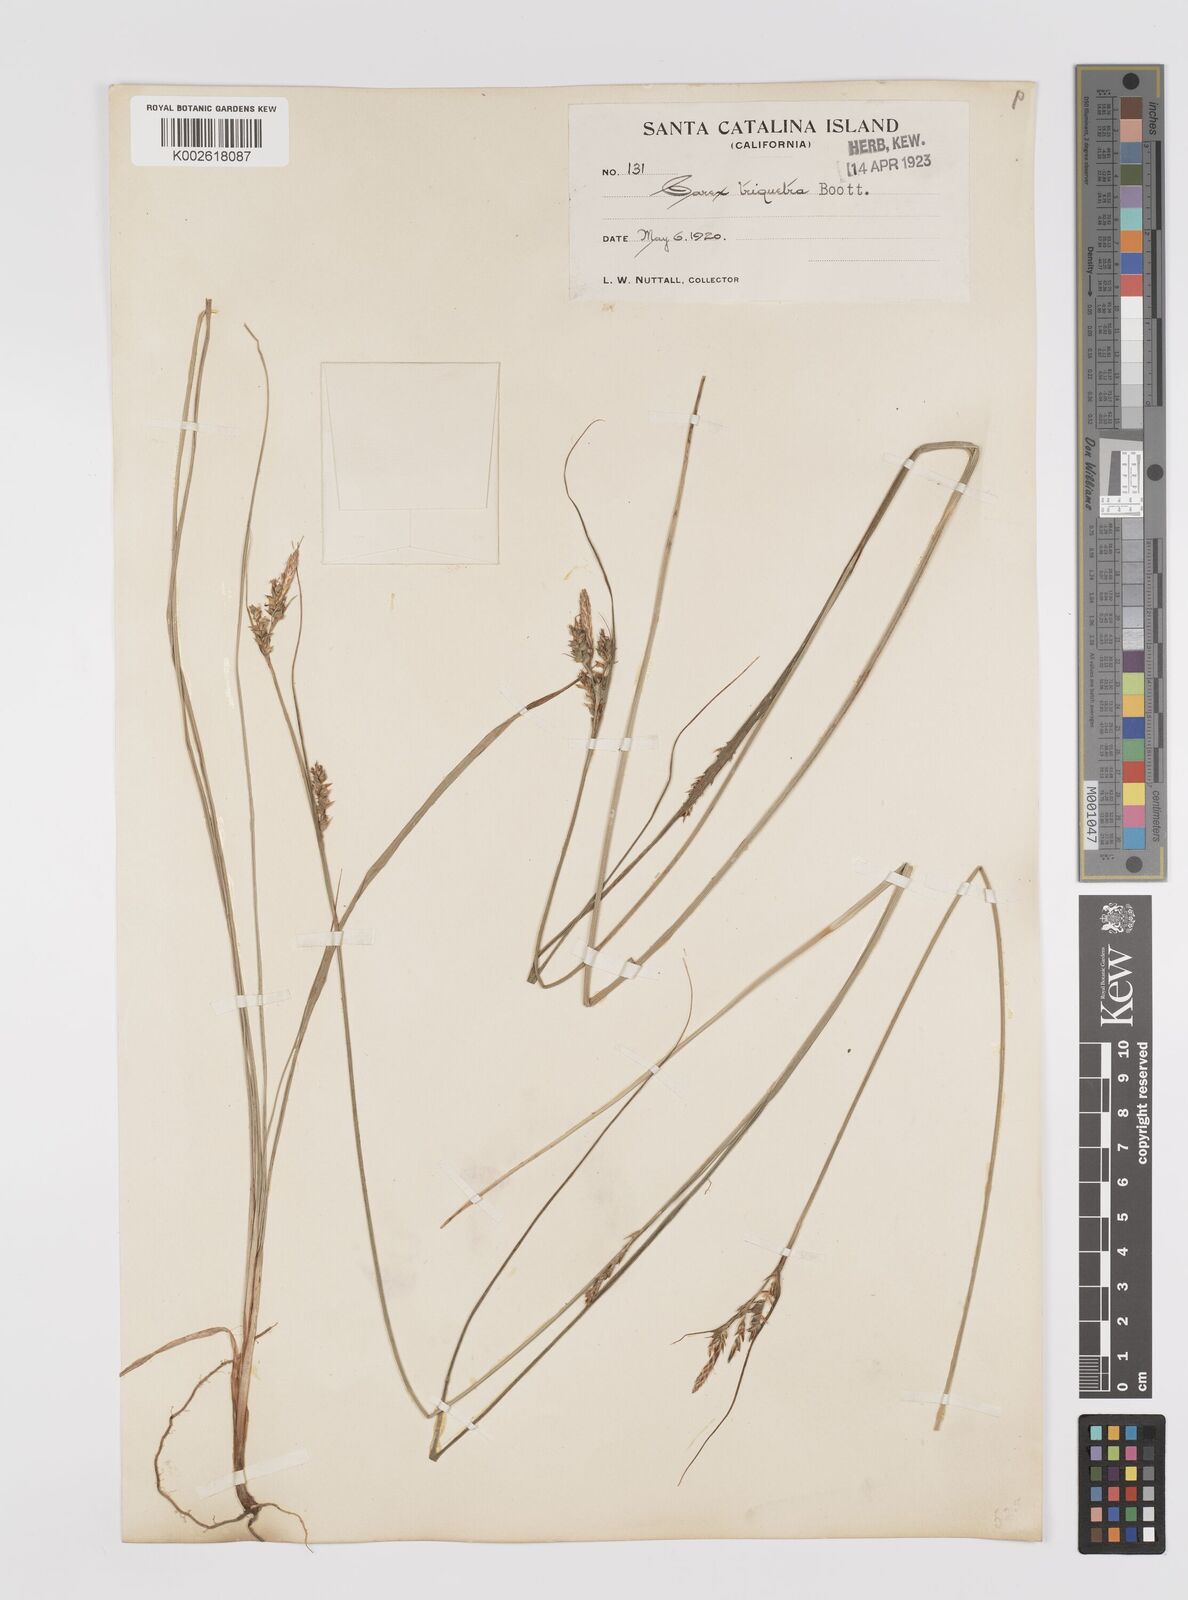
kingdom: Plantae
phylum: Tracheophyta
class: Liliopsida
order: Poales
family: Cyperaceae
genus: Carex
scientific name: Carex triquetra
